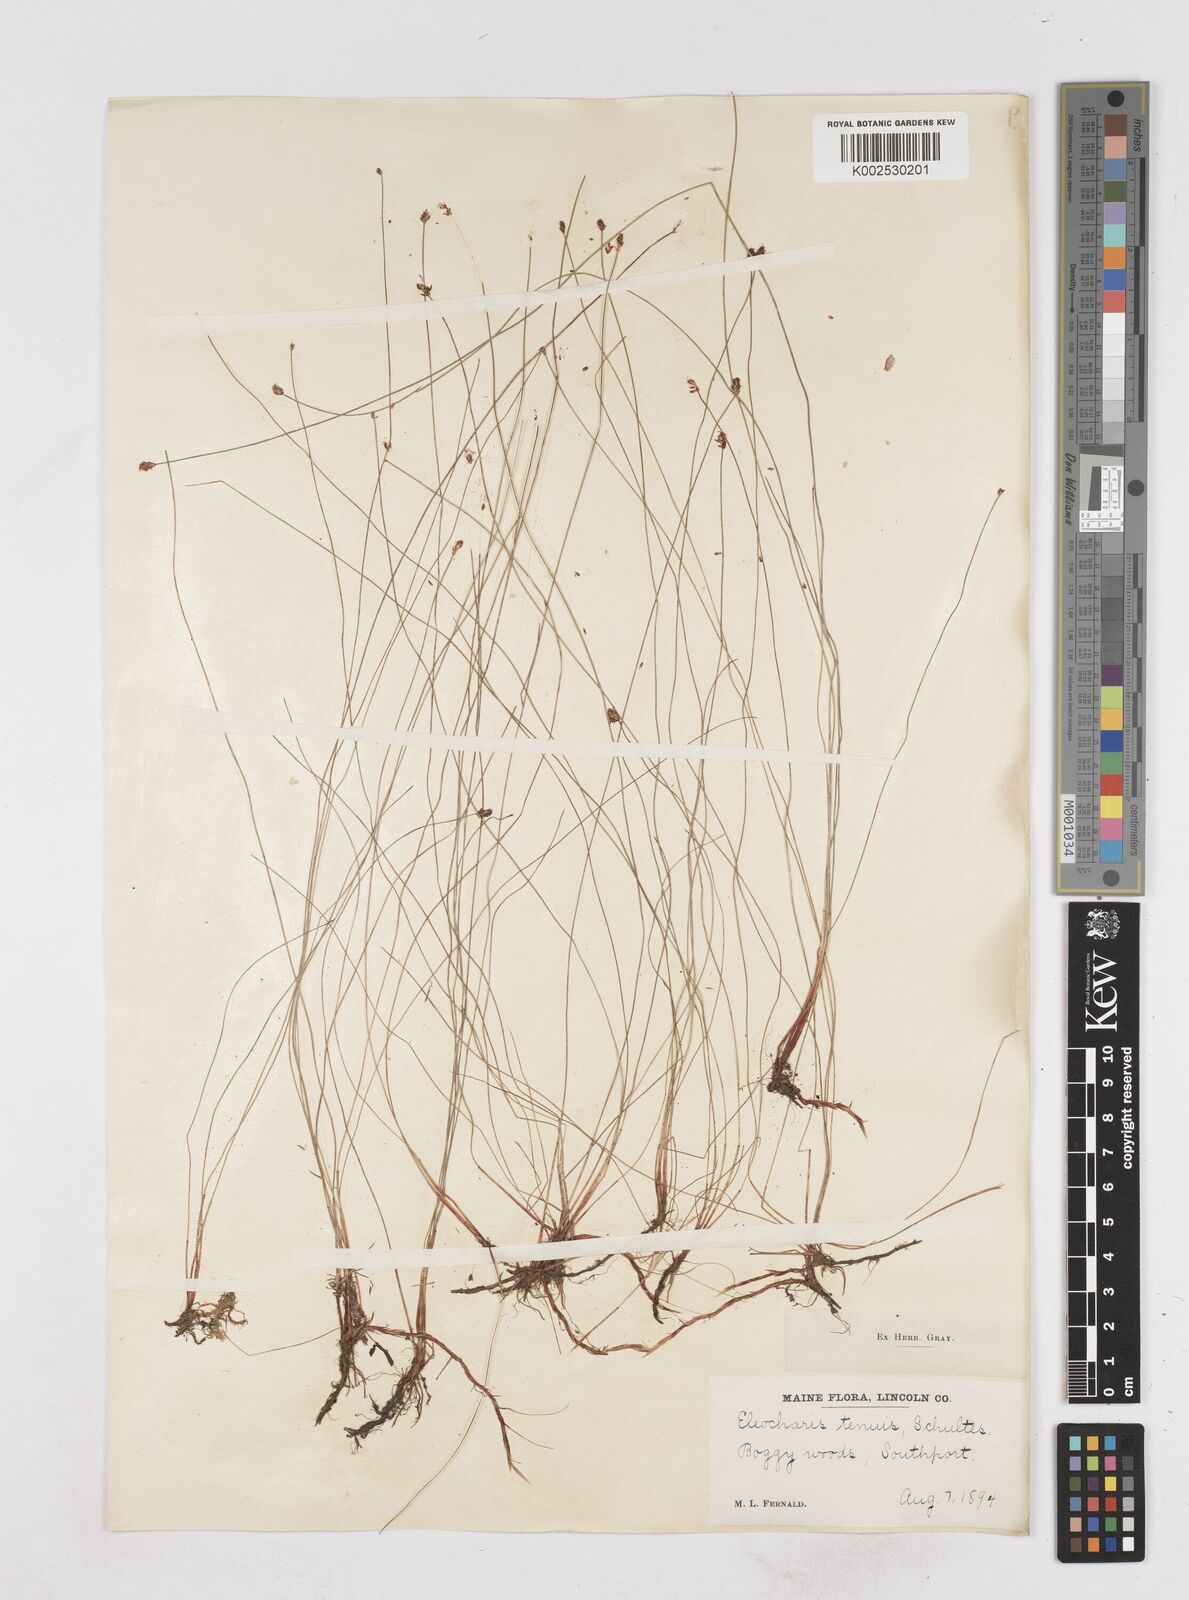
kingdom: Plantae
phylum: Tracheophyta
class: Liliopsida
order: Poales
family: Cyperaceae
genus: Eleocharis
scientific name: Eleocharis tenuis
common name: Dog's hair
